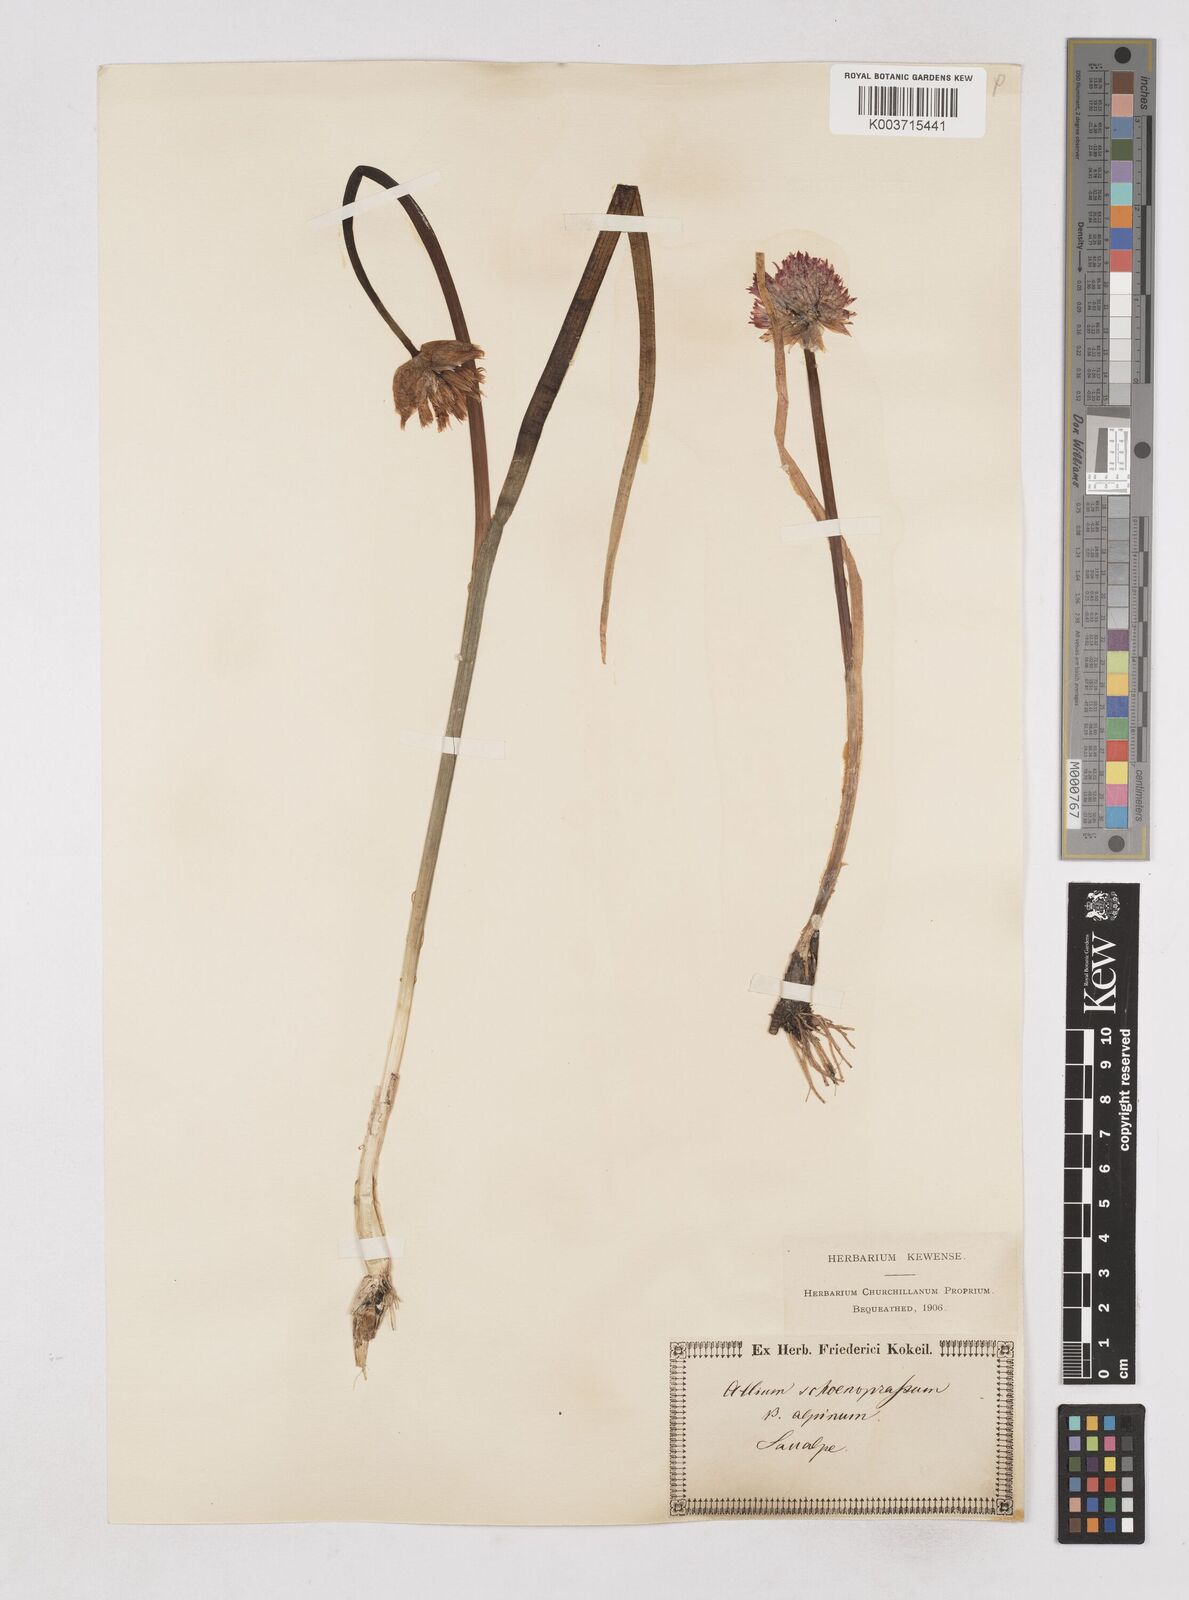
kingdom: Plantae
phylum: Tracheophyta
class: Liliopsida
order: Asparagales
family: Amaryllidaceae
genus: Allium
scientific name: Allium schoenoprasum
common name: Chives
